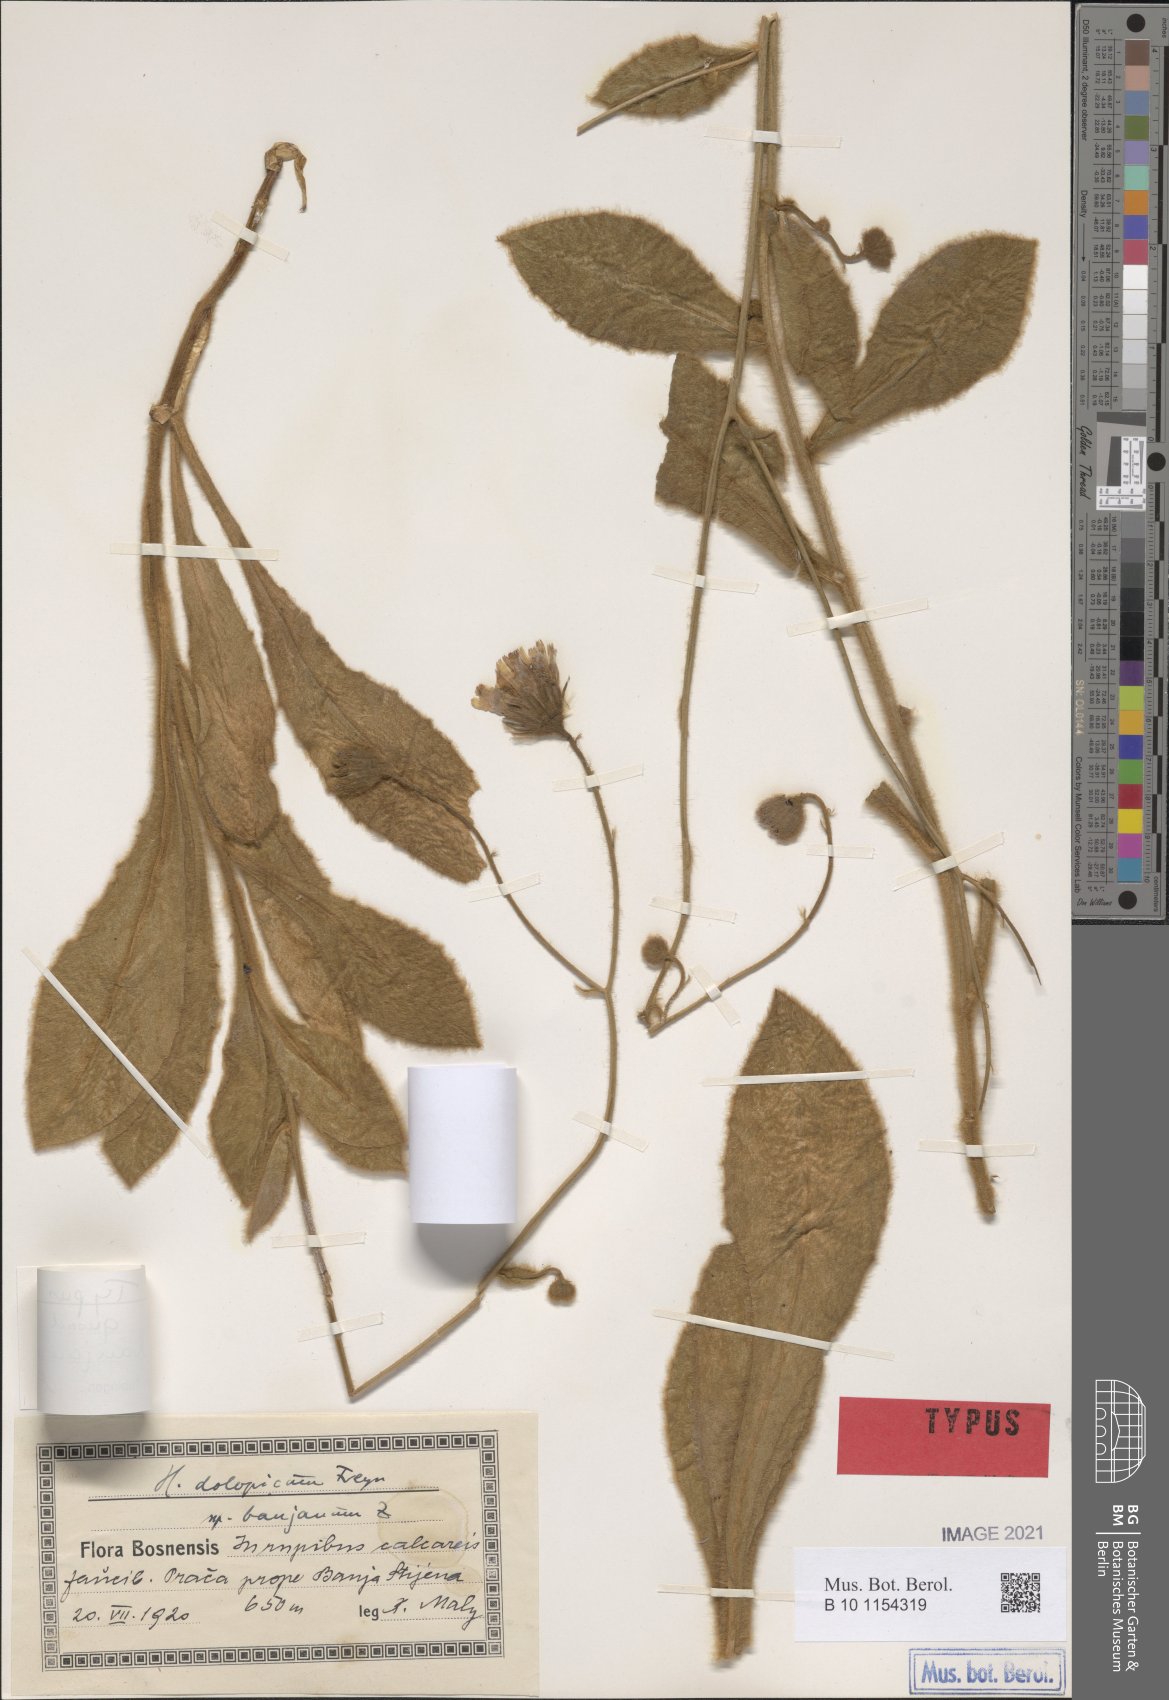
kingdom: Plantae
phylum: Tracheophyta
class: Magnoliopsida
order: Asterales
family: Asteraceae
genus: Hieracium
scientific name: Hieracium bosniacum
